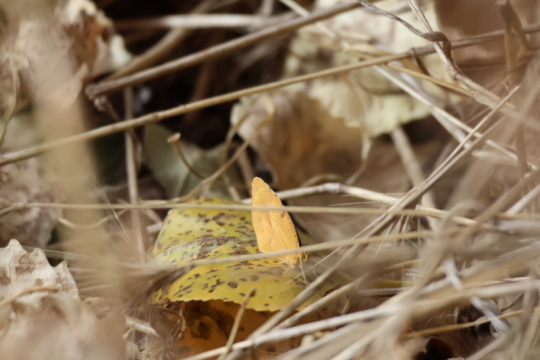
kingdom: Animalia
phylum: Arthropoda
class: Insecta
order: Lepidoptera
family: Pieridae
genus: Abaeis
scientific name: Abaeis nicippe
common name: Sleepy Orange
